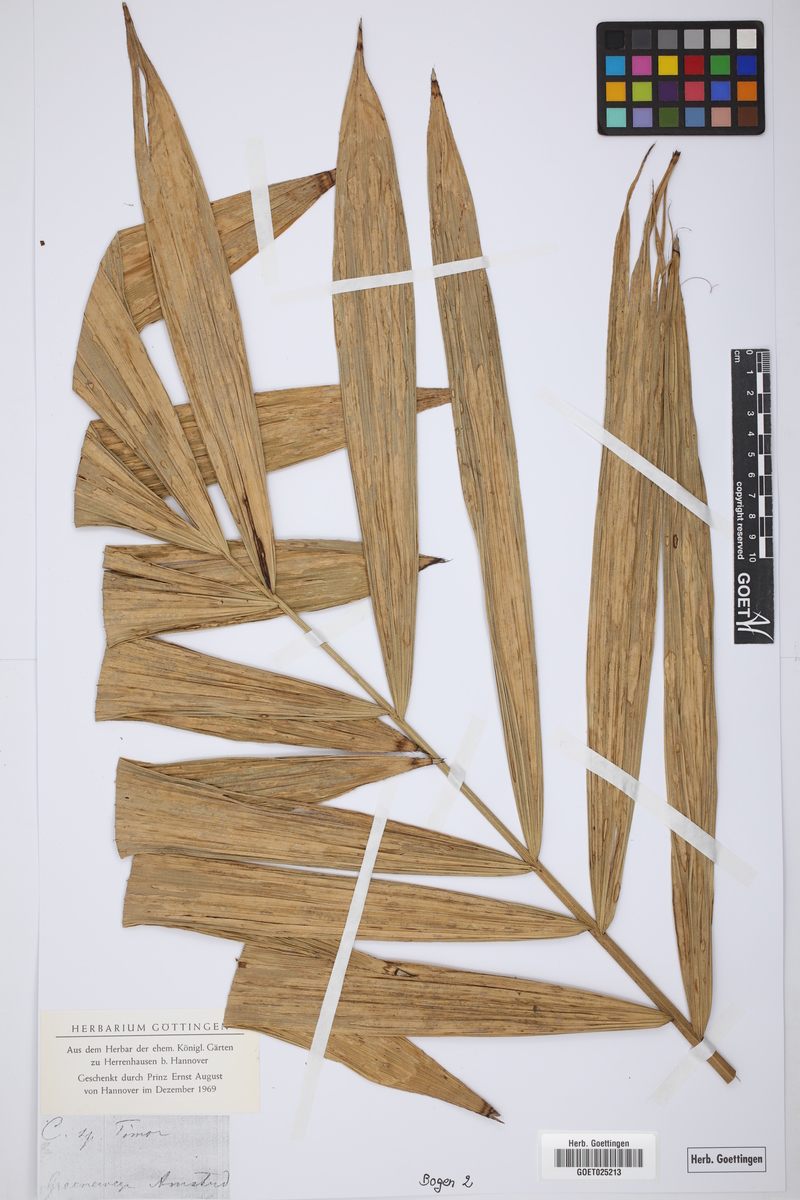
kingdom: Plantae
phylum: Tracheophyta
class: Liliopsida
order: Arecales
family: Arecaceae
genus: Calamus
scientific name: Calamus
